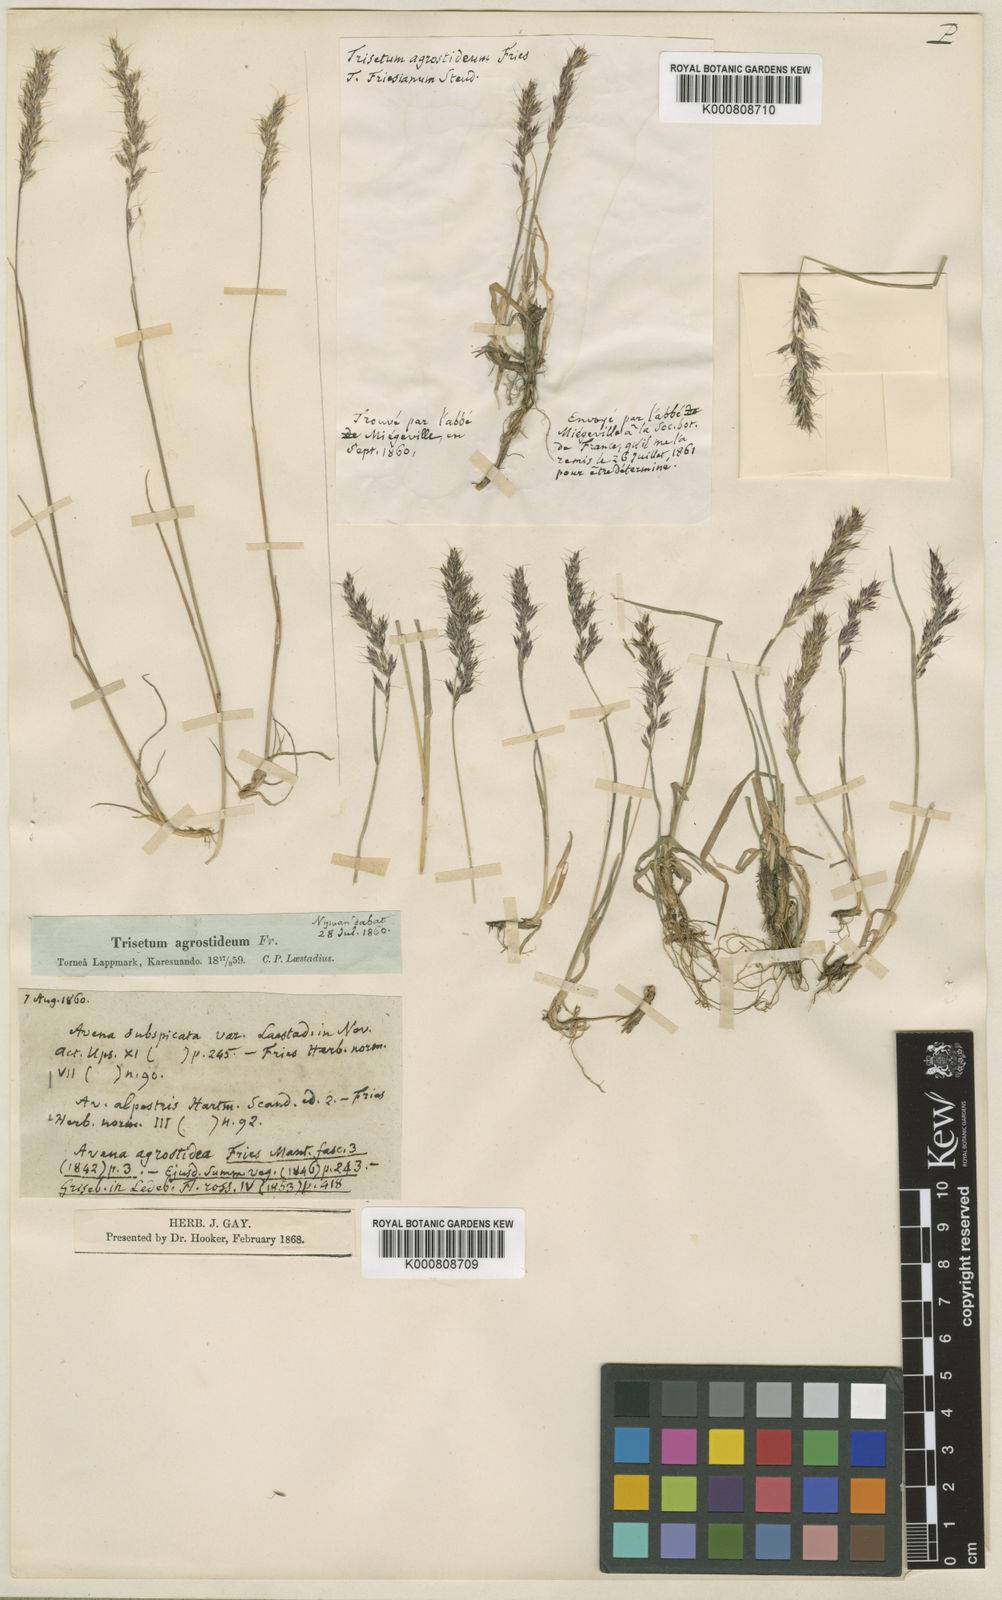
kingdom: Plantae
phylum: Tracheophyta
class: Liliopsida
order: Poales
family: Poaceae
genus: Koeleria
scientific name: Koeleria subalpestris
